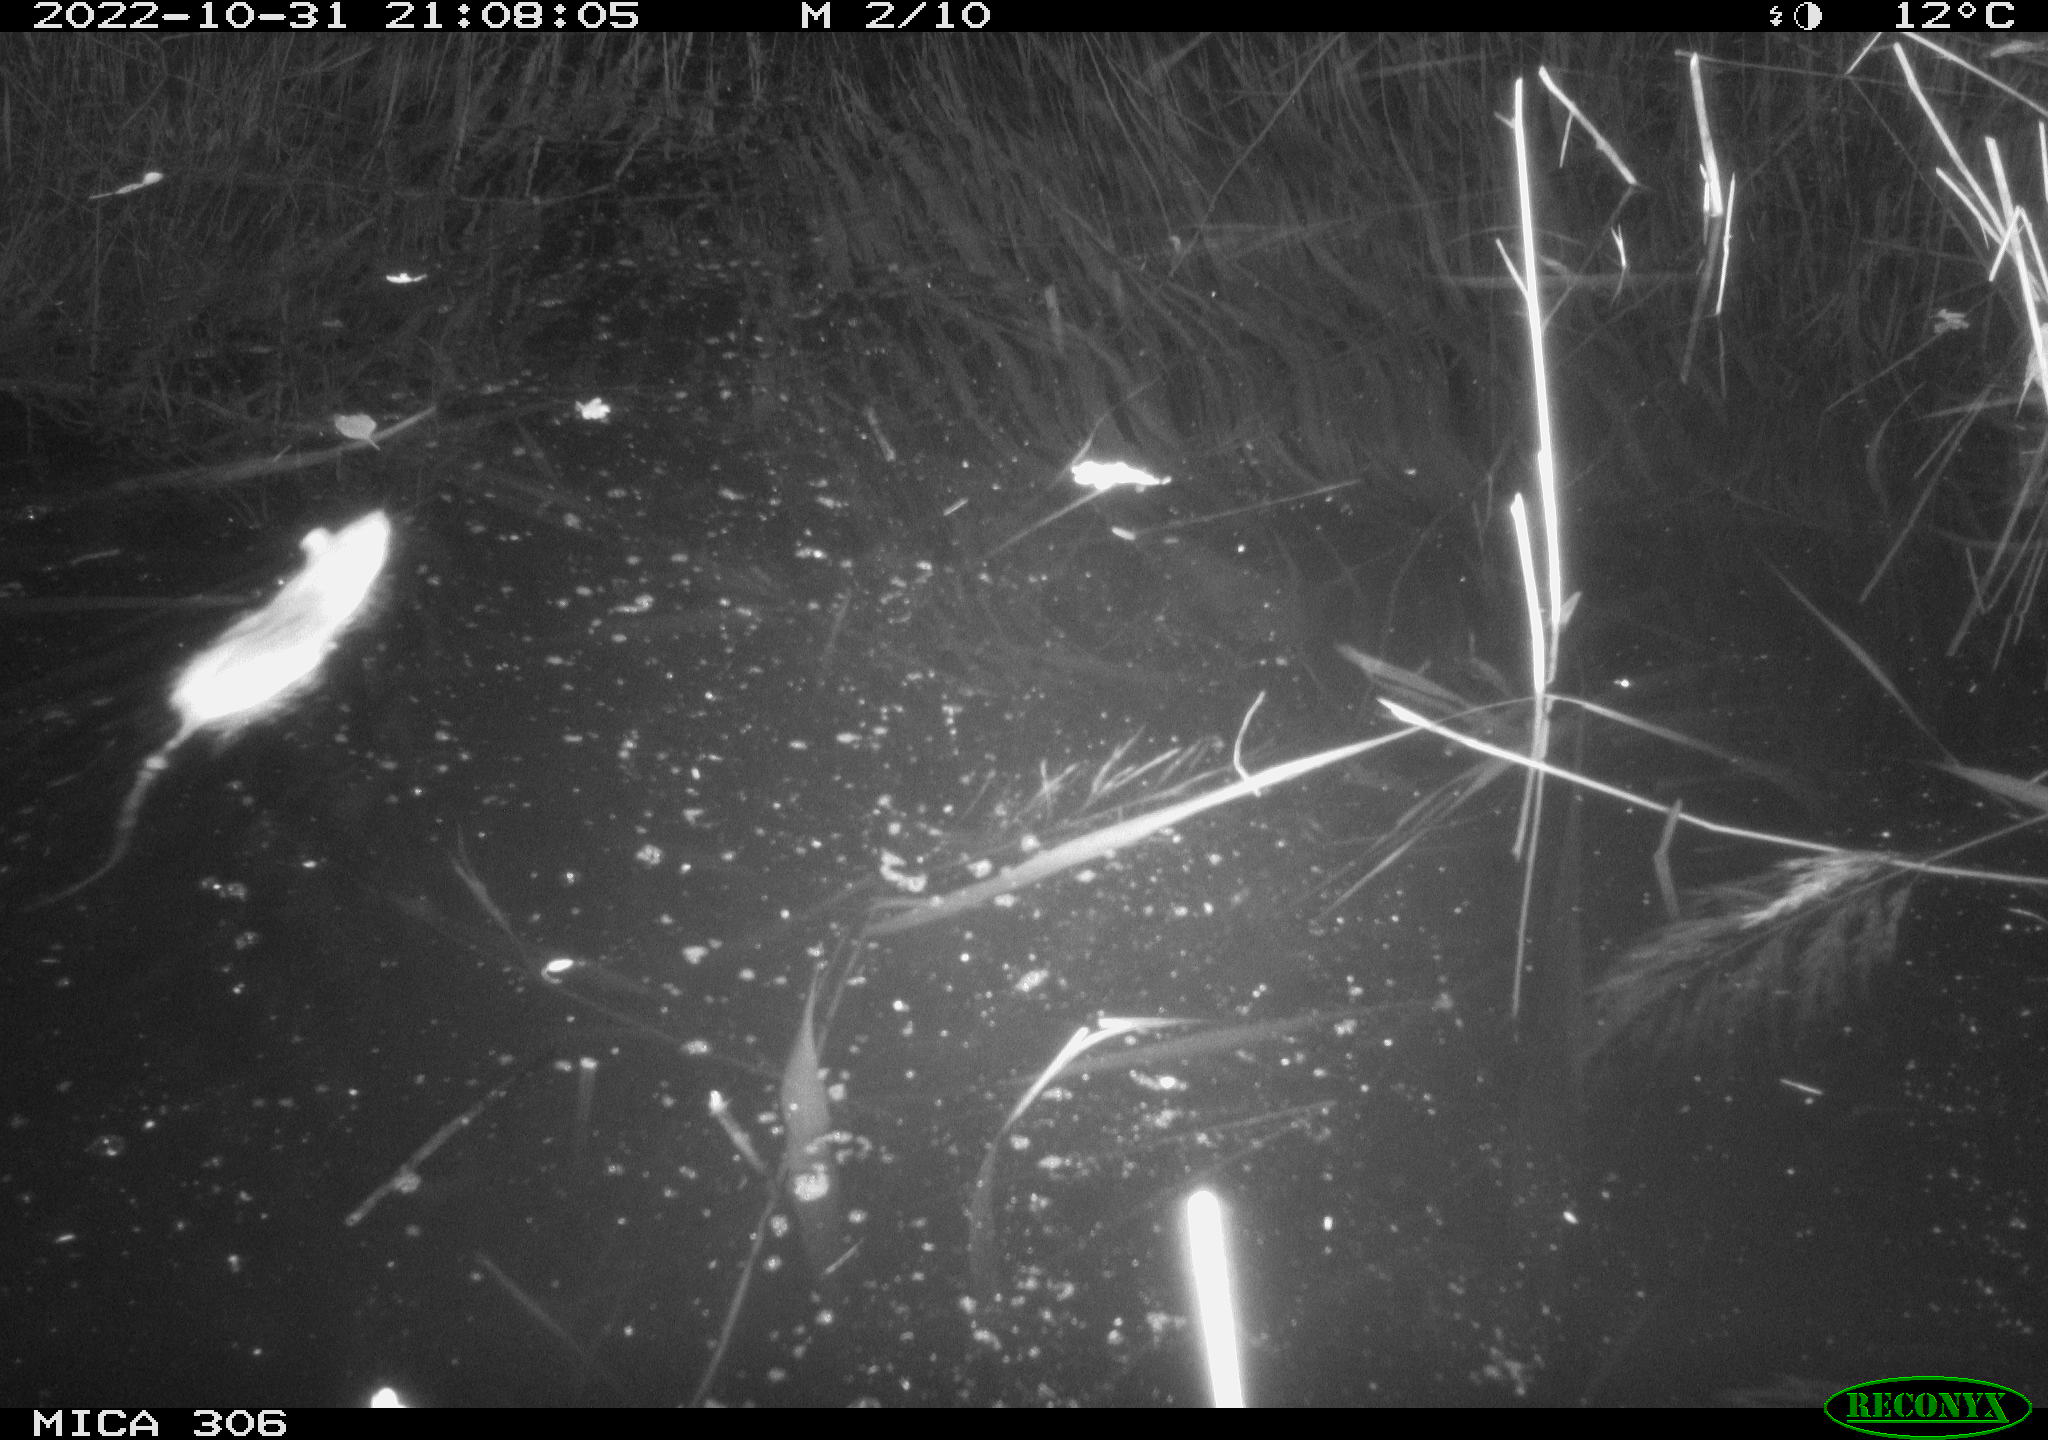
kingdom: Animalia
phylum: Chordata
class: Mammalia
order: Rodentia
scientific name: Rodentia
